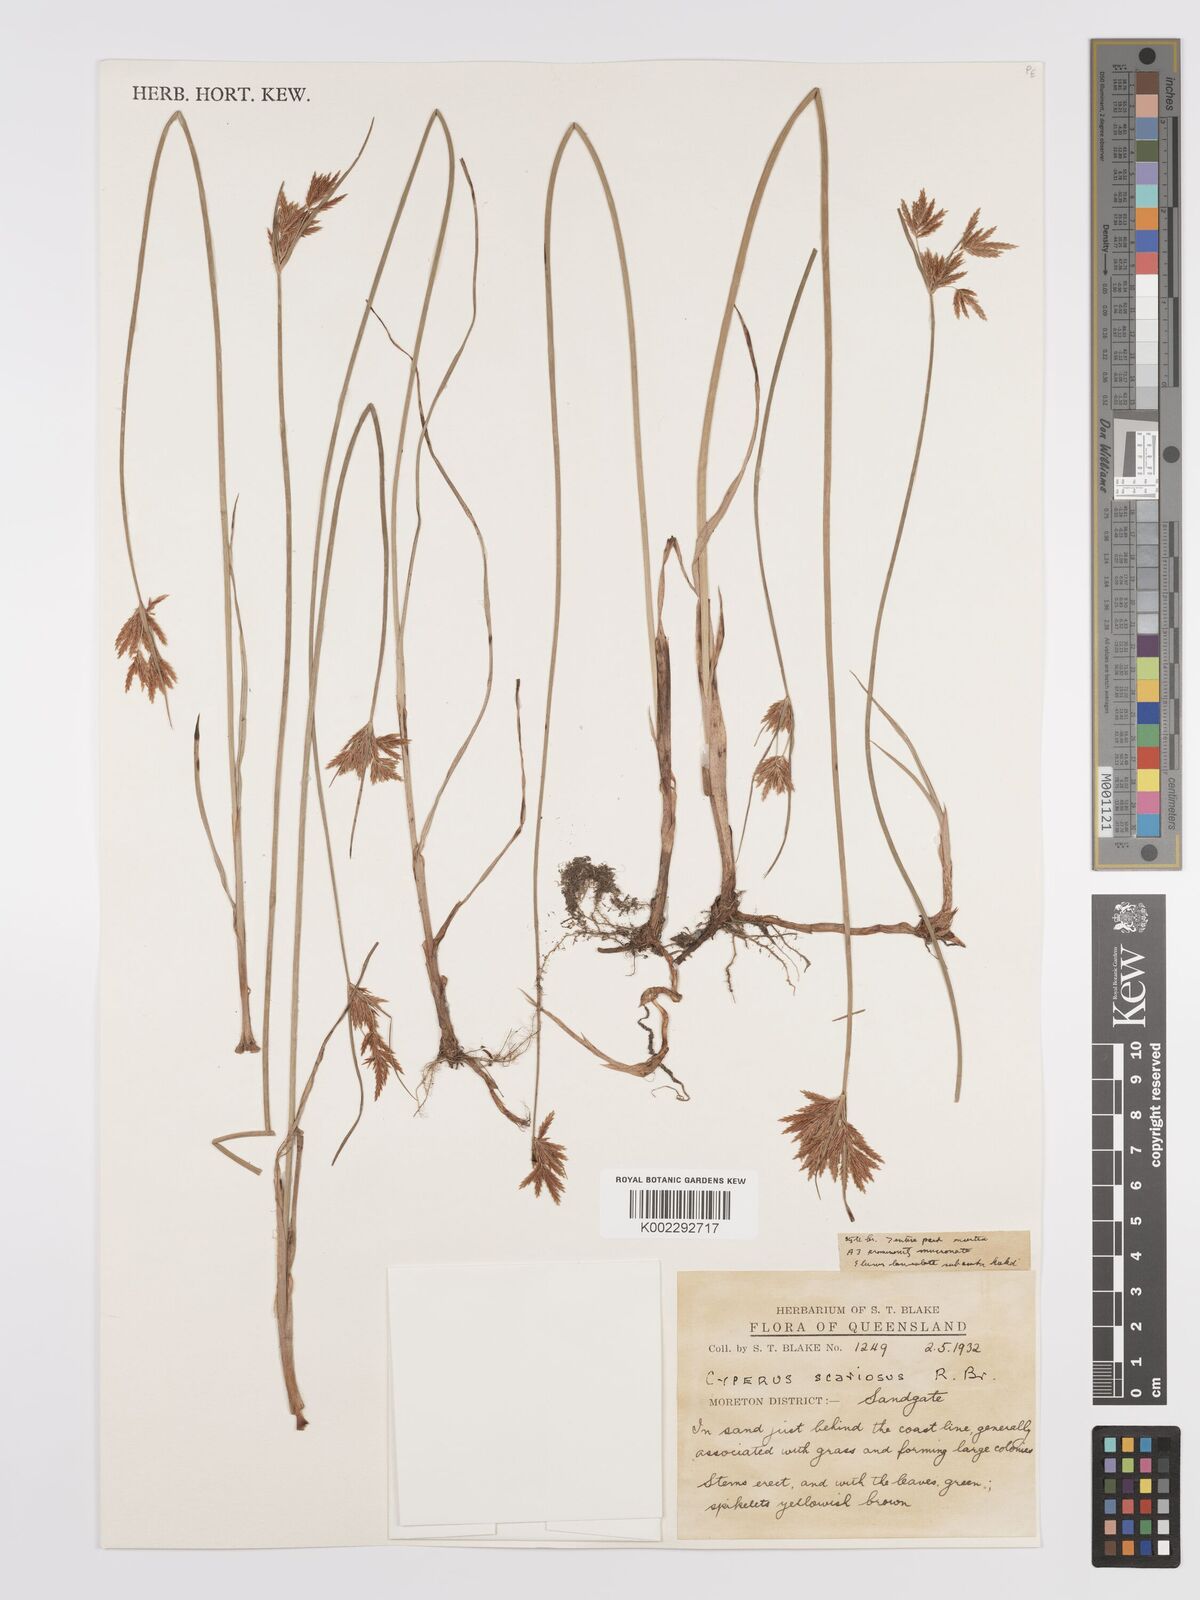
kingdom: Plantae
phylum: Tracheophyta
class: Liliopsida
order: Poales
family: Cyperaceae
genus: Cyperus
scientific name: Cyperus scariosus
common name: Cypriol
